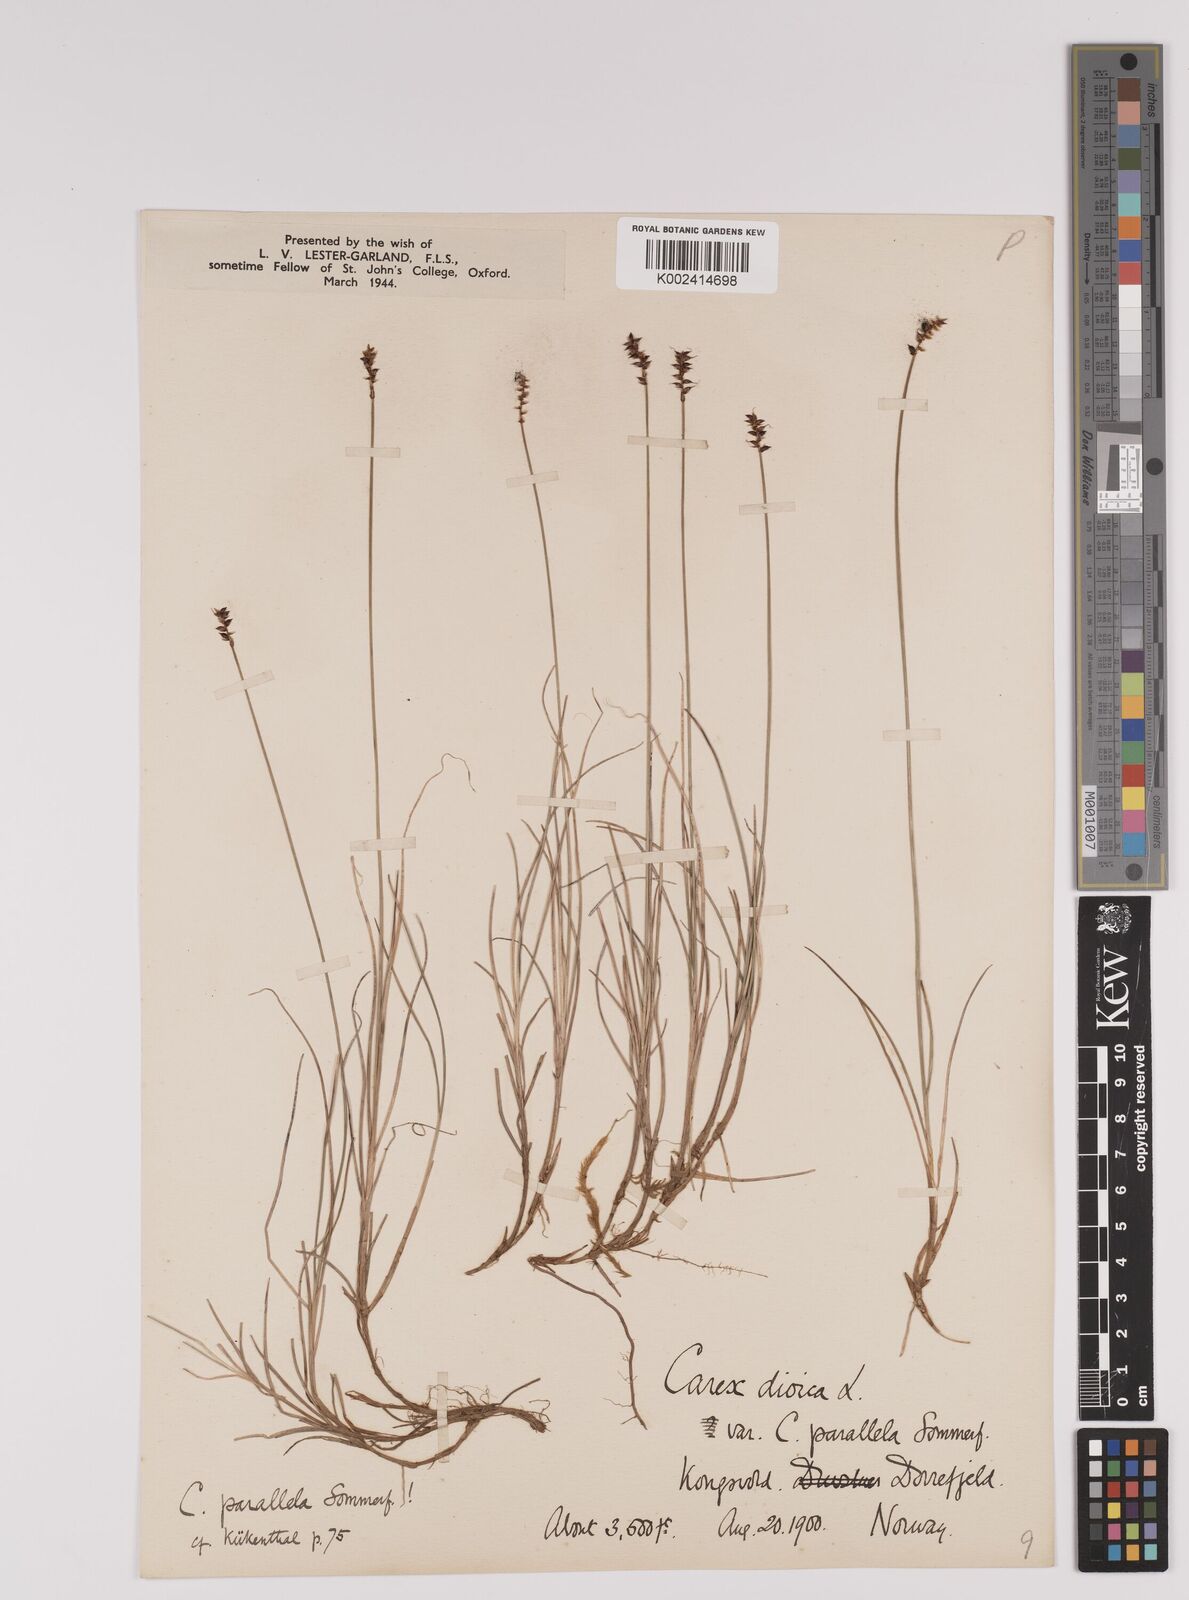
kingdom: Plantae
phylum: Tracheophyta
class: Liliopsida
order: Poales
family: Cyperaceae
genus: Carex
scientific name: Carex parallela
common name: Parallel sedge
